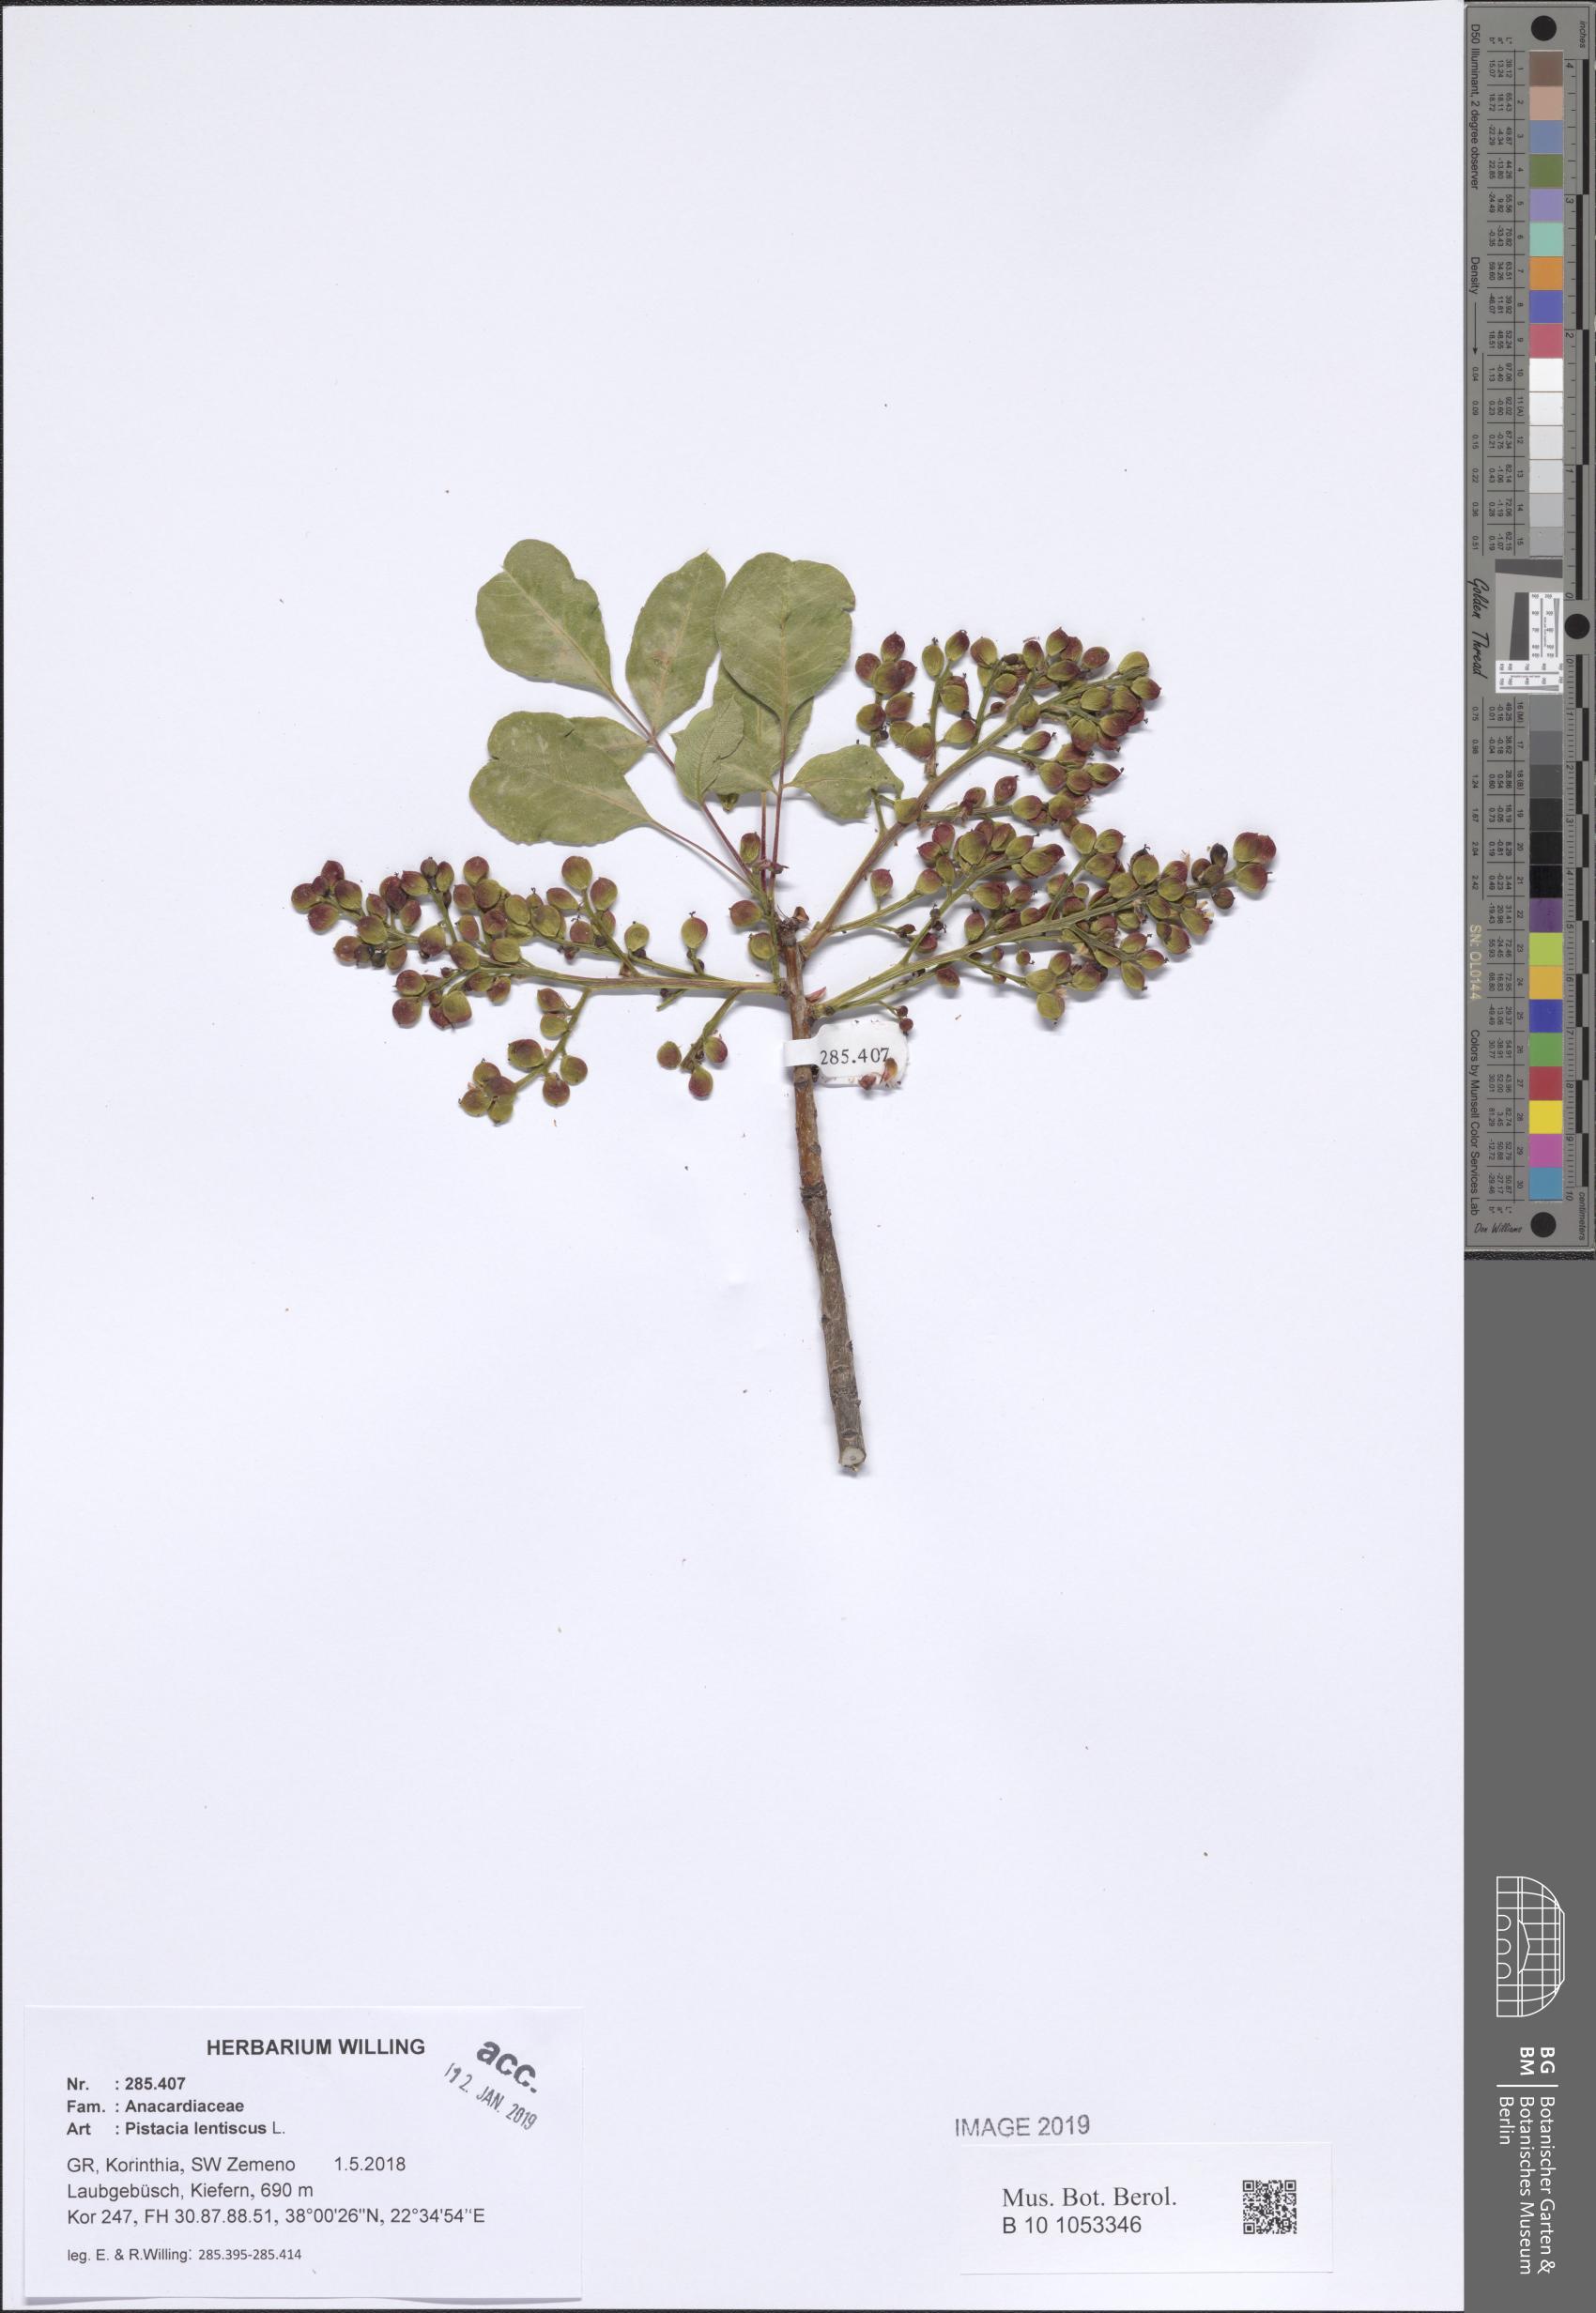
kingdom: Plantae
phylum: Tracheophyta
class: Magnoliopsida
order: Sapindales
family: Anacardiaceae
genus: Pistacia
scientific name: Pistacia lentiscus
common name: Lentisk
